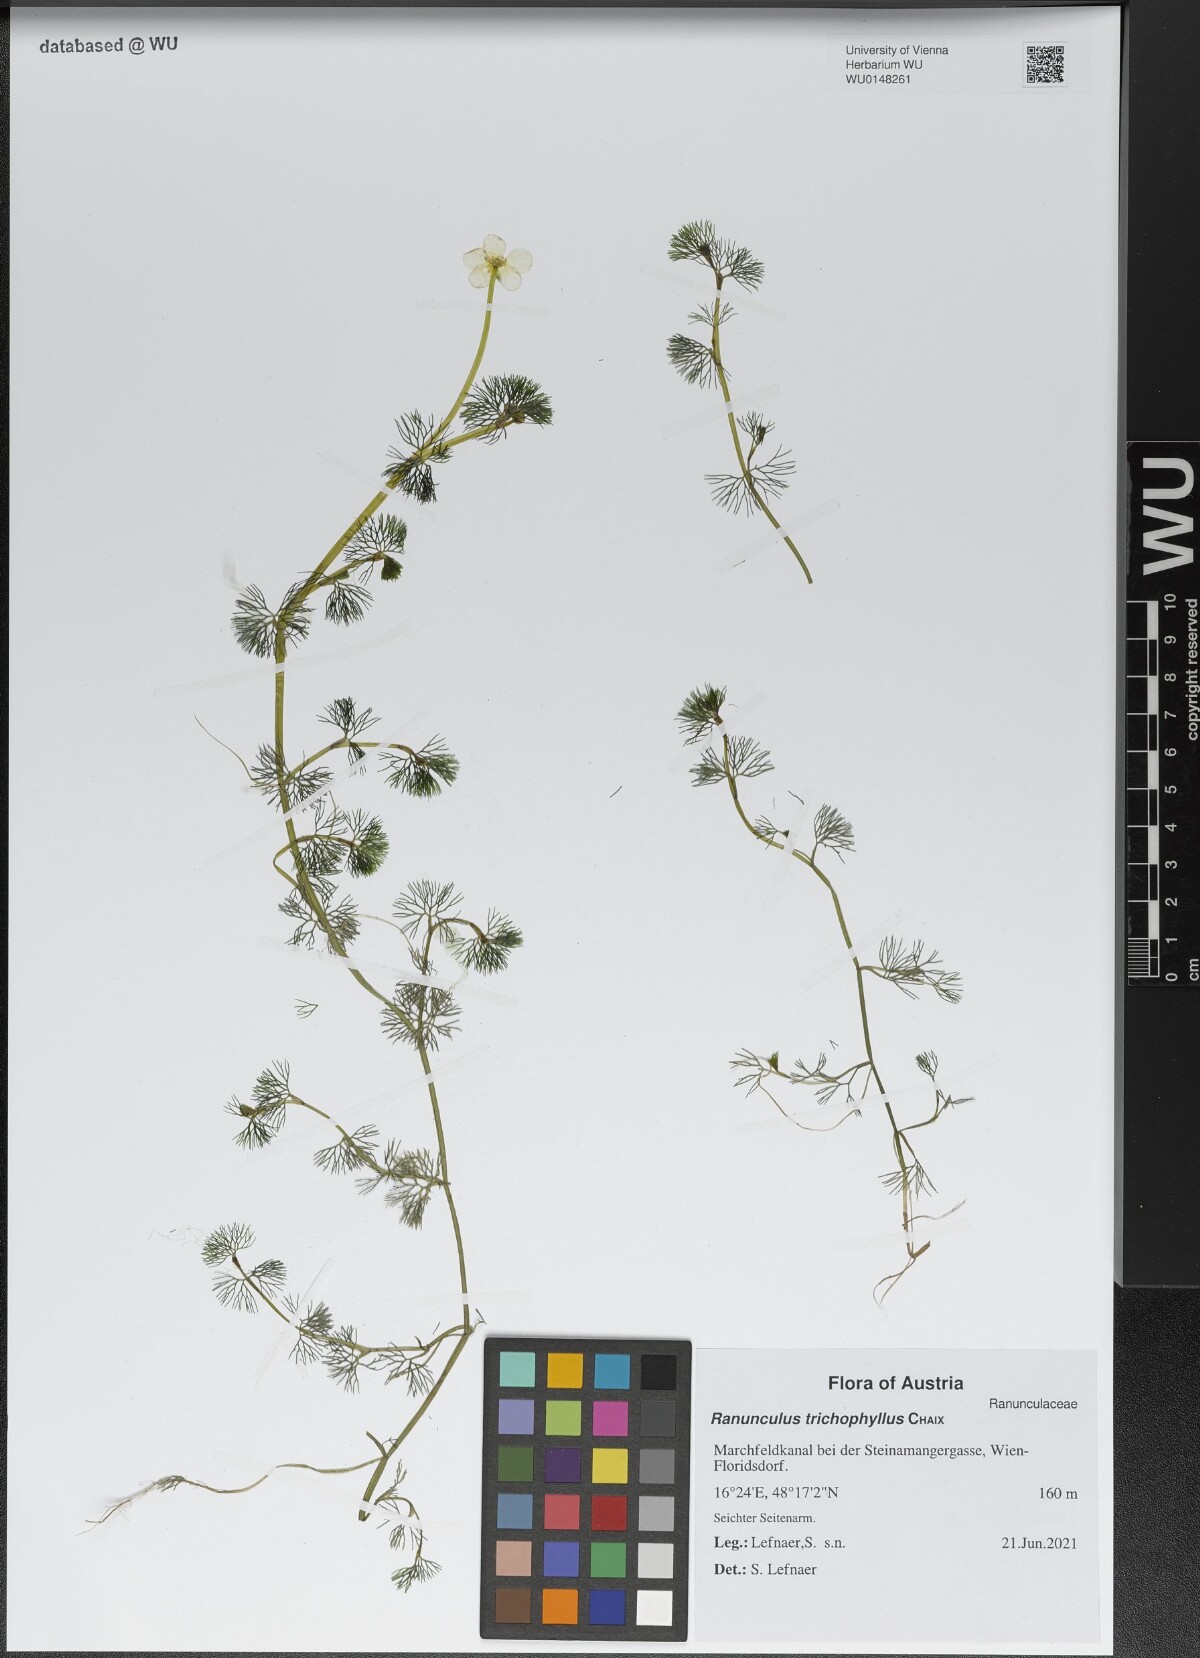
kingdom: Plantae
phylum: Tracheophyta
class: Magnoliopsida
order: Ranunculales
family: Ranunculaceae
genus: Ranunculus
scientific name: Ranunculus trichophyllus
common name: Thread-leaved water-crowfoot
